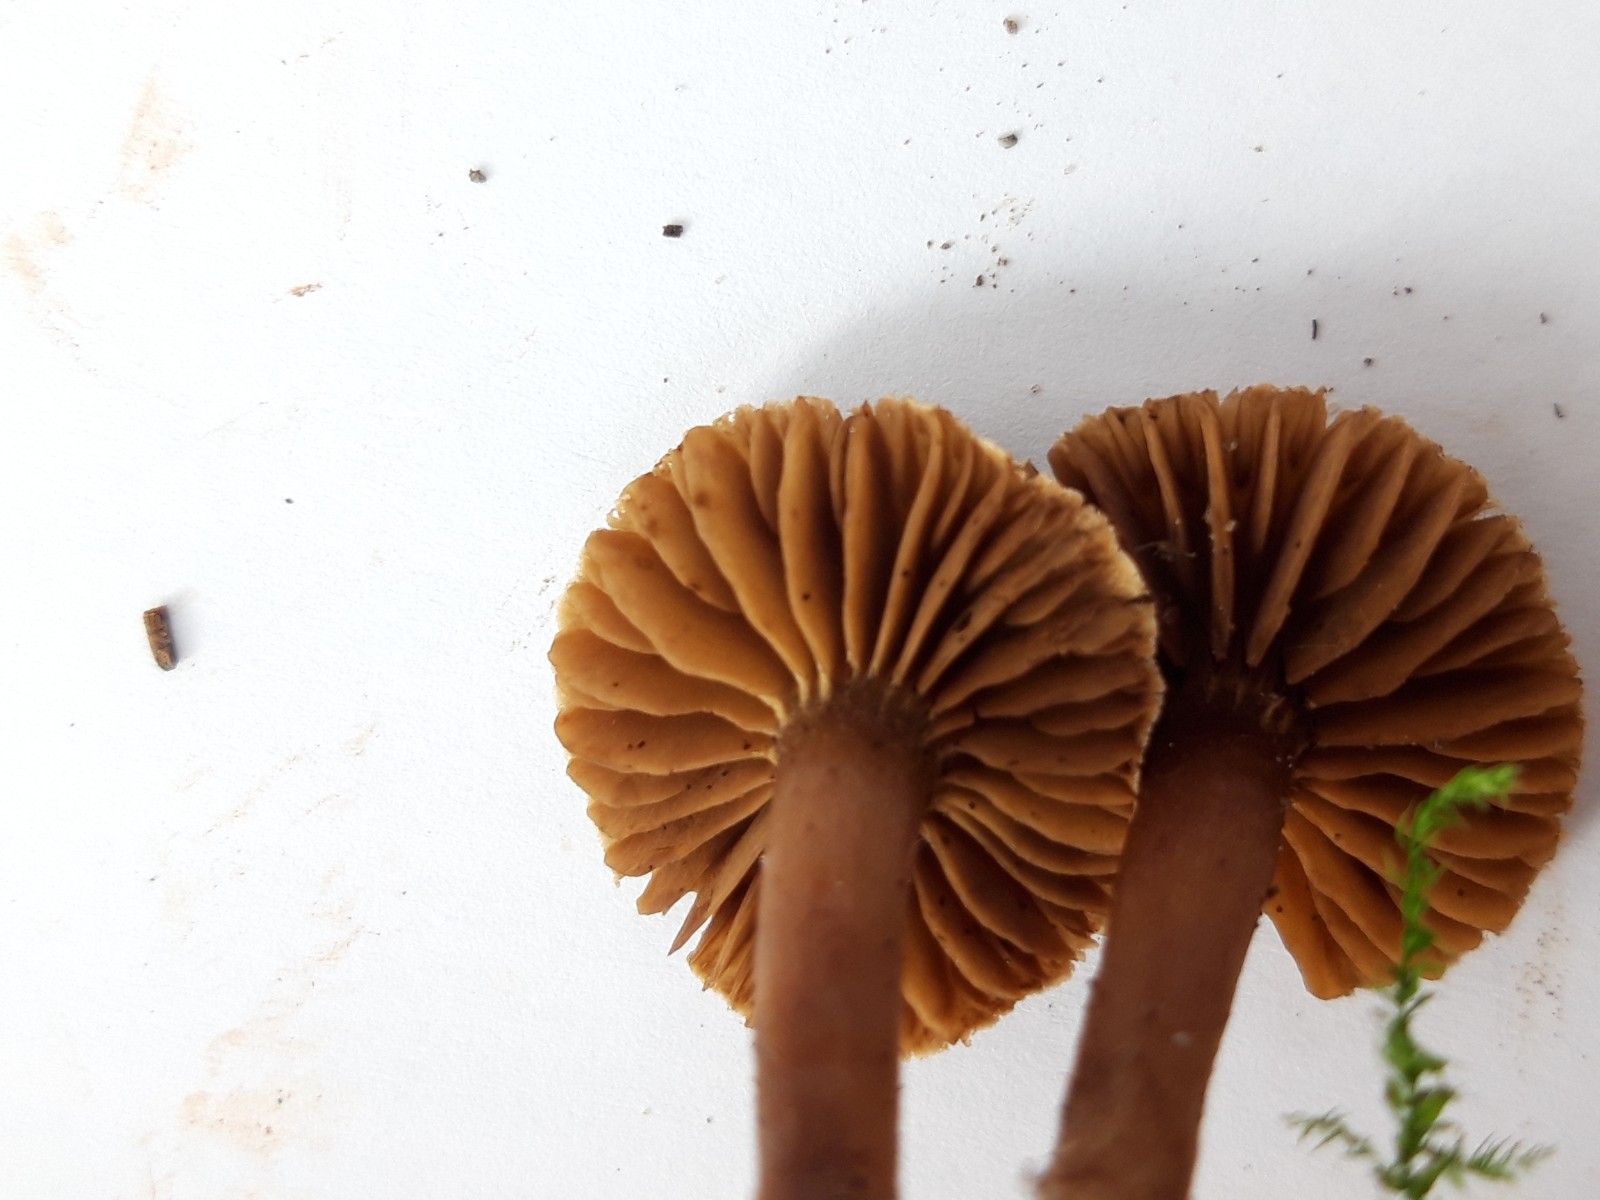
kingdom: Fungi
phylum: Basidiomycota
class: Agaricomycetes
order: Agaricales
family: Cortinariaceae
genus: Cortinarius
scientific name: Cortinarius
